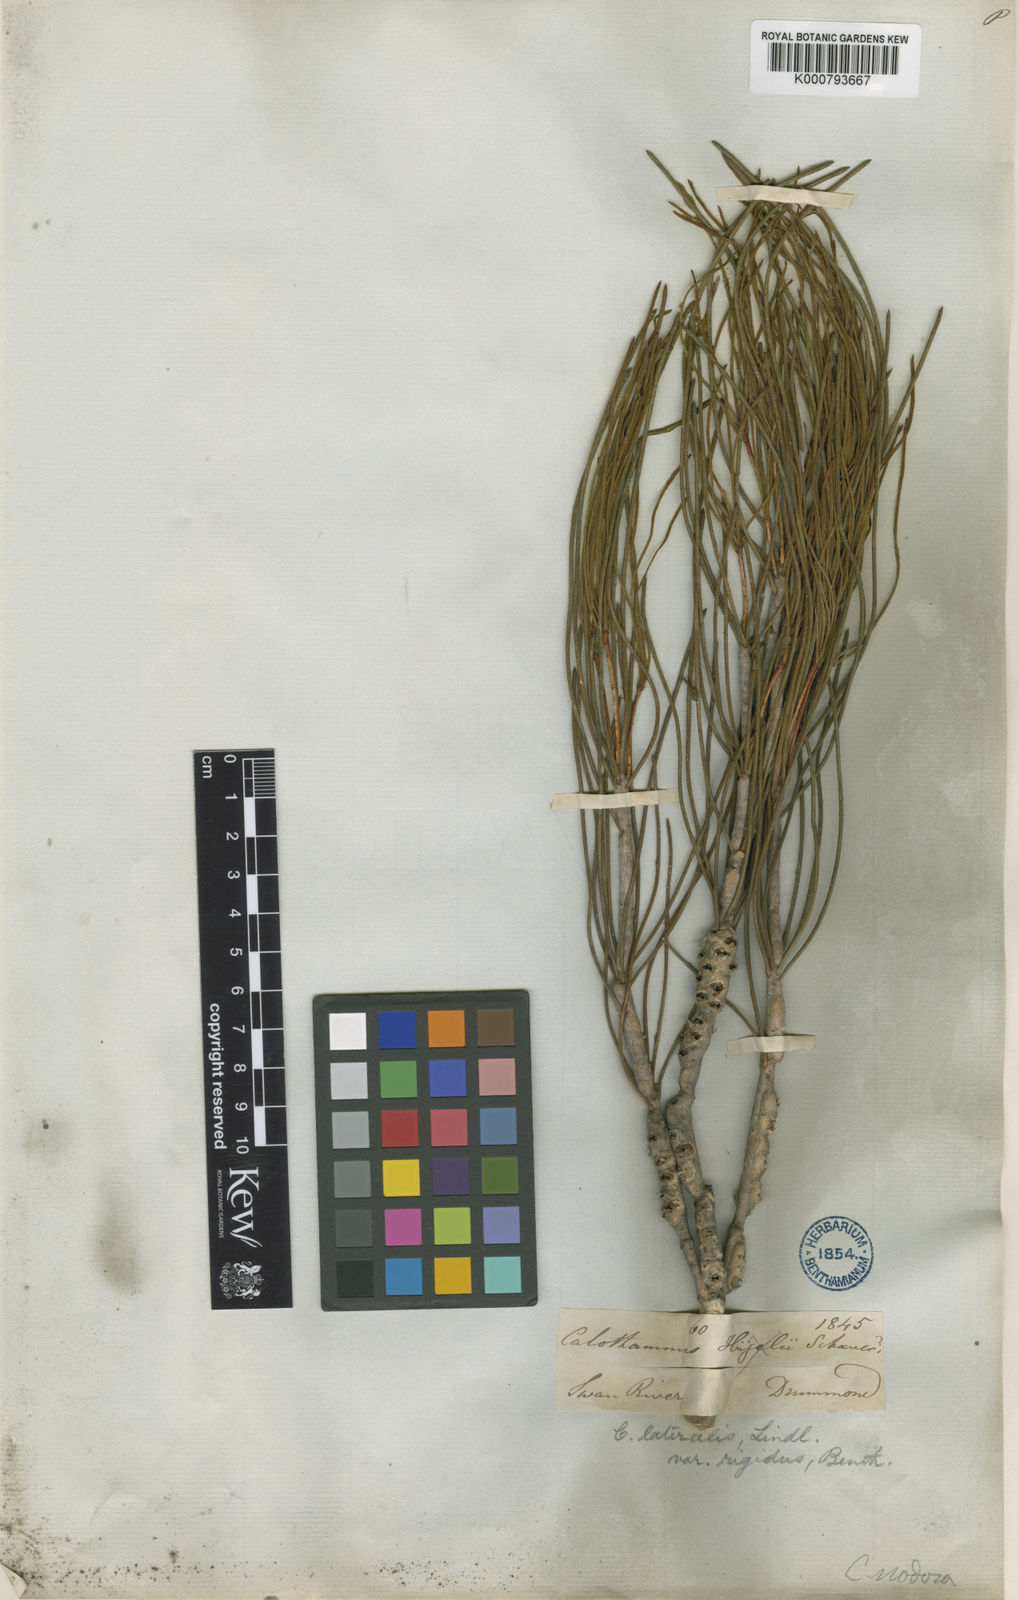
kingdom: Plantae
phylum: Tracheophyta
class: Magnoliopsida
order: Myrtales
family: Myrtaceae
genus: Melaleuca
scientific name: Melaleuca lateralis
